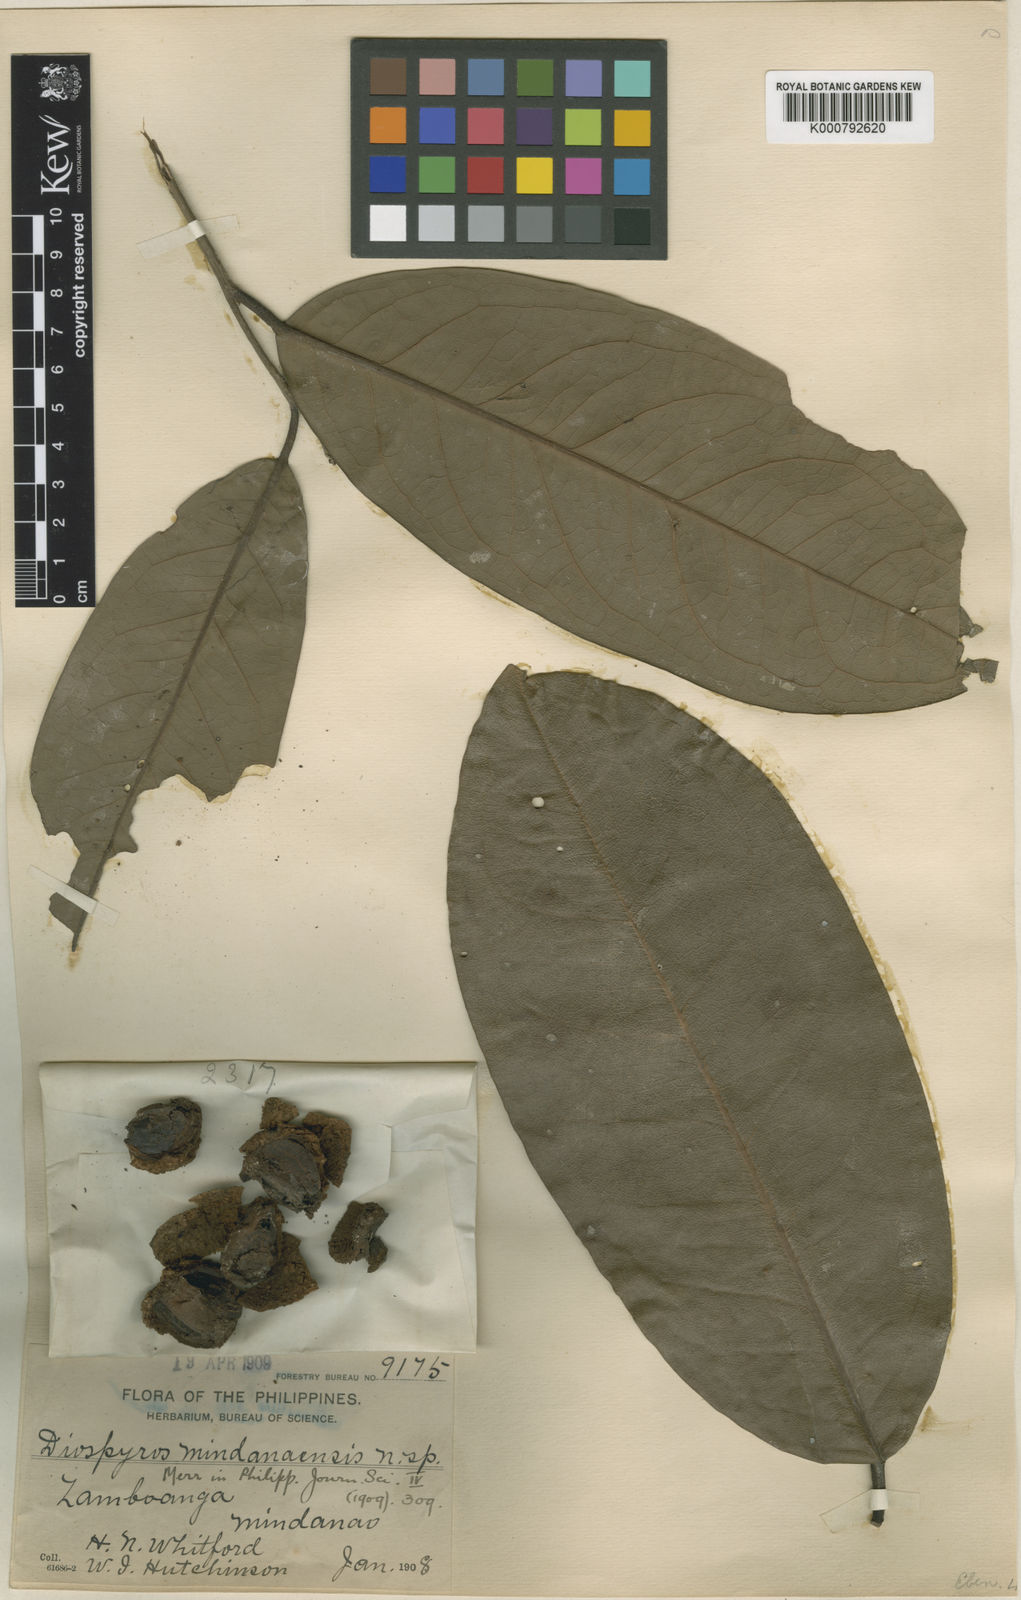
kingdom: Plantae
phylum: Tracheophyta
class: Magnoliopsida
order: Ericales
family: Ebenaceae
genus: Diospyros
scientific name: Diospyros mindanaensis
